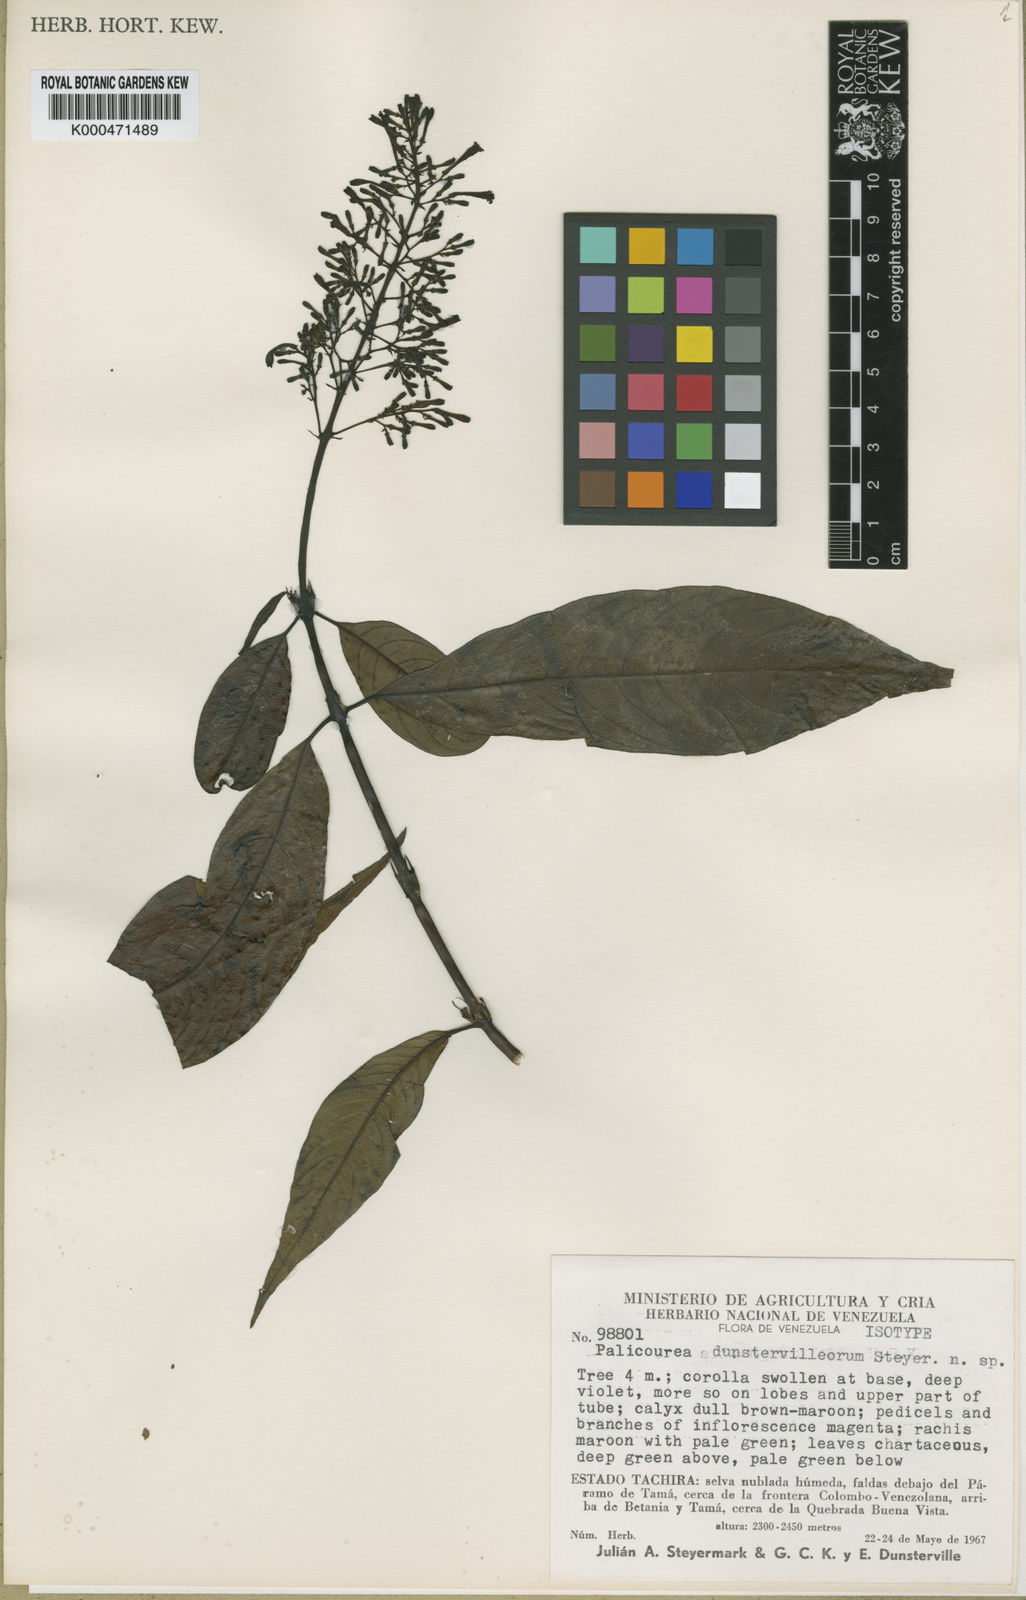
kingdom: Plantae
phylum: Tracheophyta
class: Magnoliopsida
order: Gentianales
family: Rubiaceae
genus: Palicourea
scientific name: Palicourea dunstervilleorum
